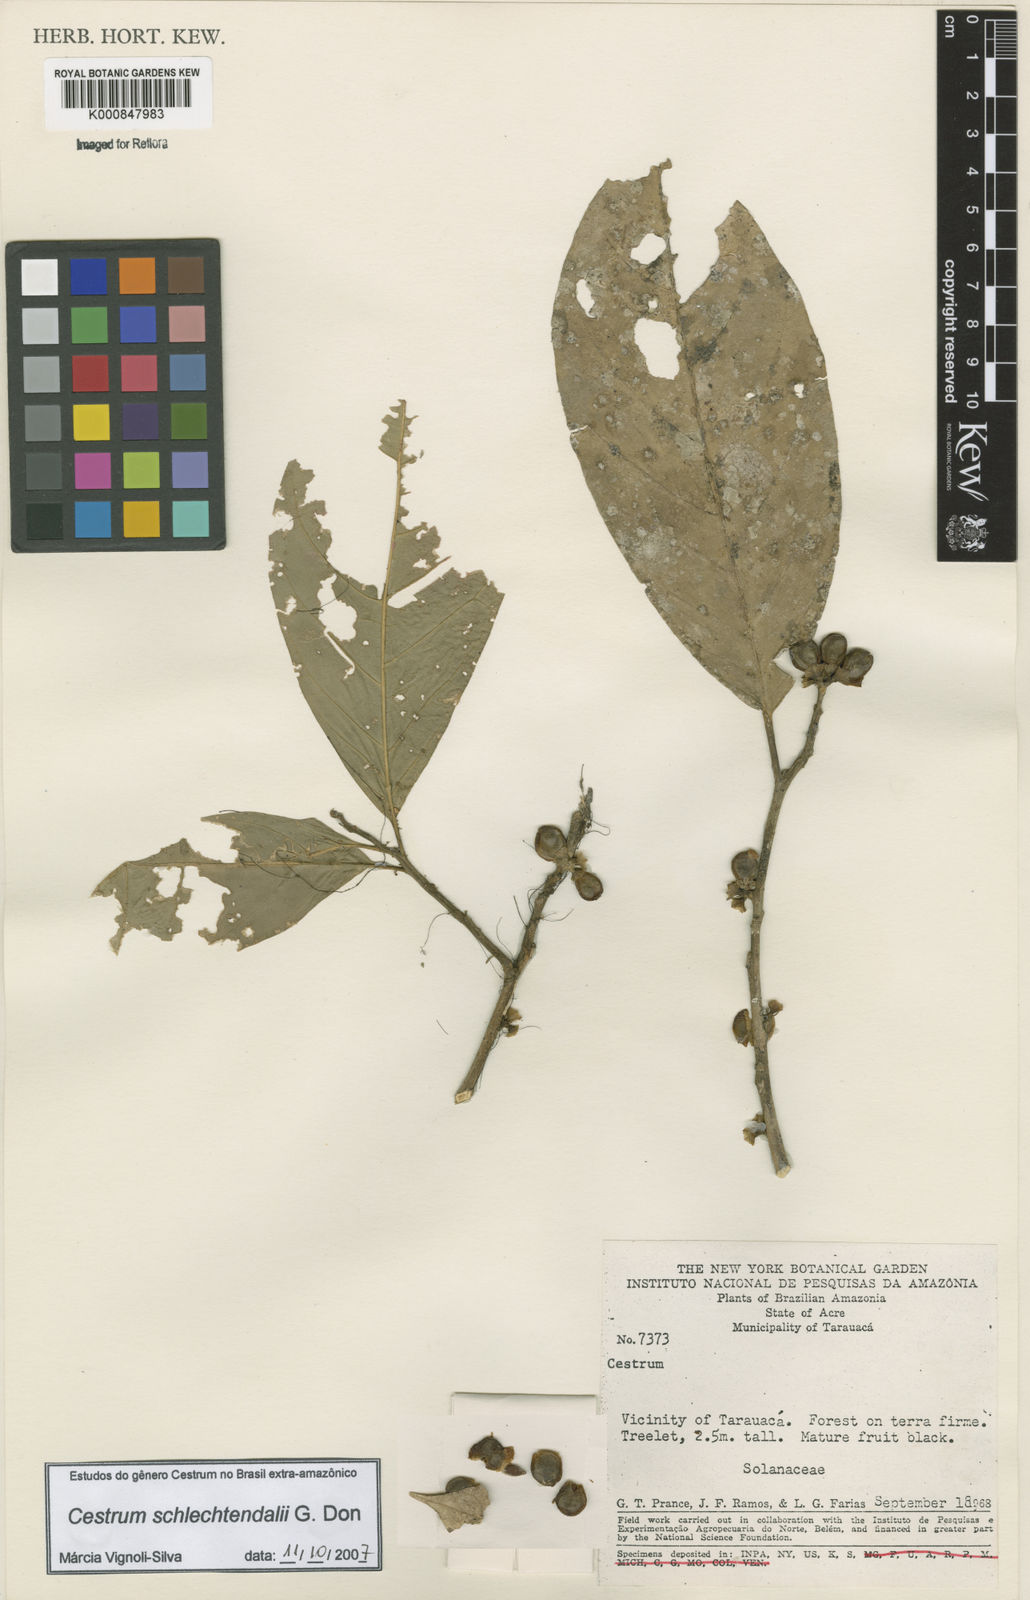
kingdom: Plantae
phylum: Tracheophyta
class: Magnoliopsida
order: Solanales
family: Solanaceae
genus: Cestrum
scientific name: Cestrum schlechtendalii
